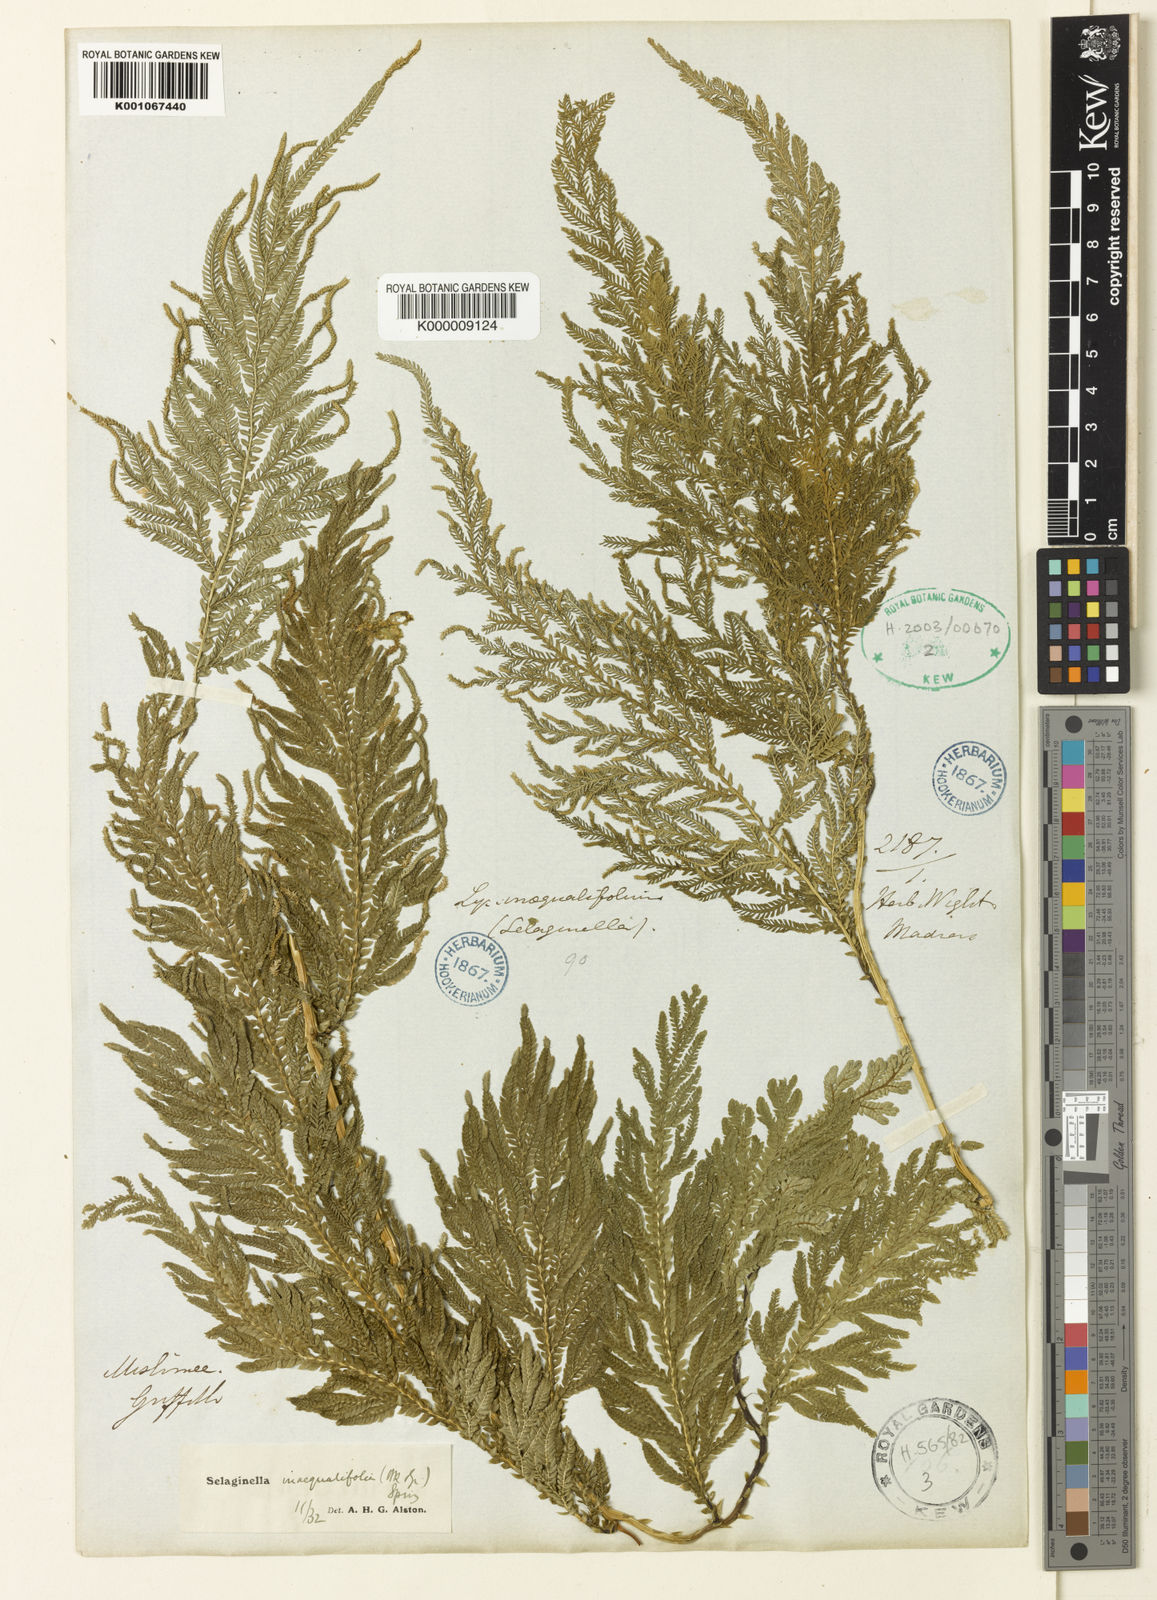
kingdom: Plantae
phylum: Tracheophyta
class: Lycopodiopsida
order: Selaginellales
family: Selaginellaceae
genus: Selaginella
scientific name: Selaginella inaequalifolia
